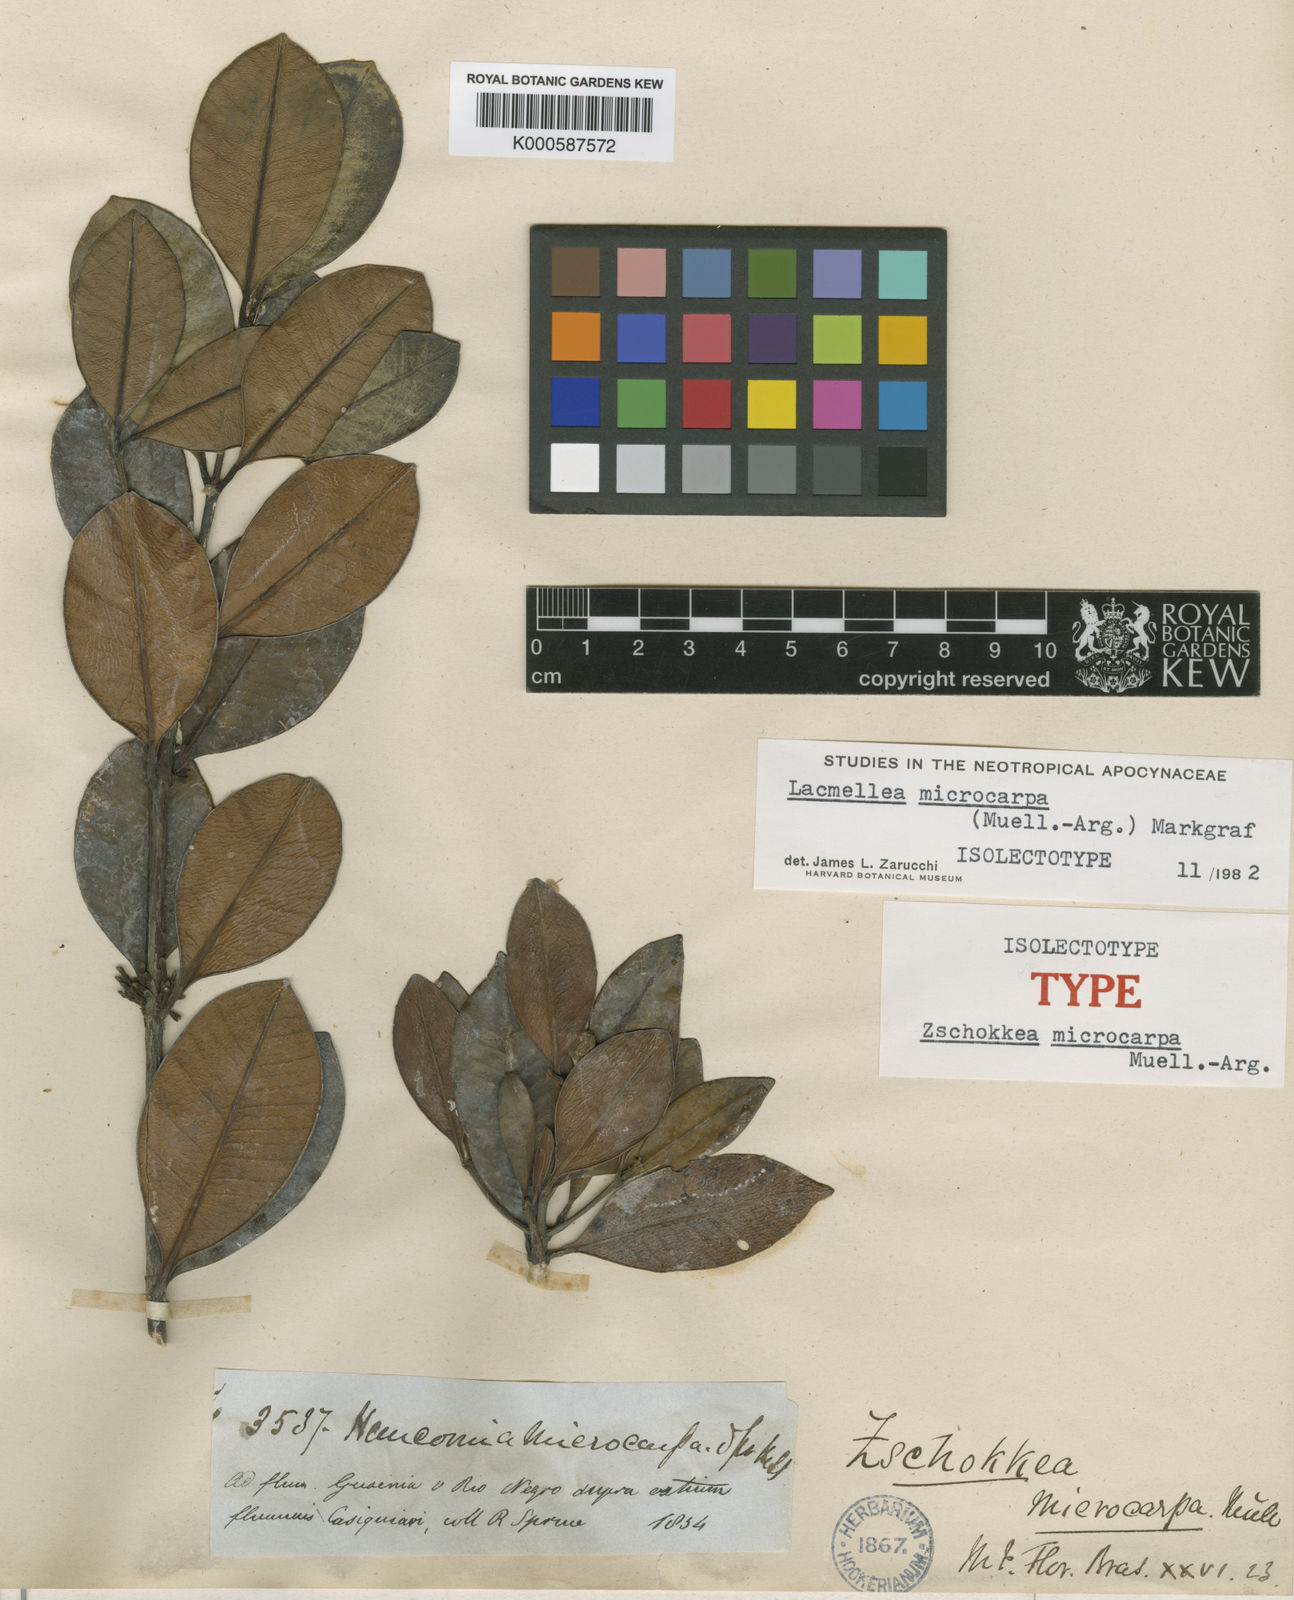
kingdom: Plantae
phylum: Tracheophyta
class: Magnoliopsida
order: Gentianales
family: Apocynaceae
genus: Lacmellea
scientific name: Lacmellea
